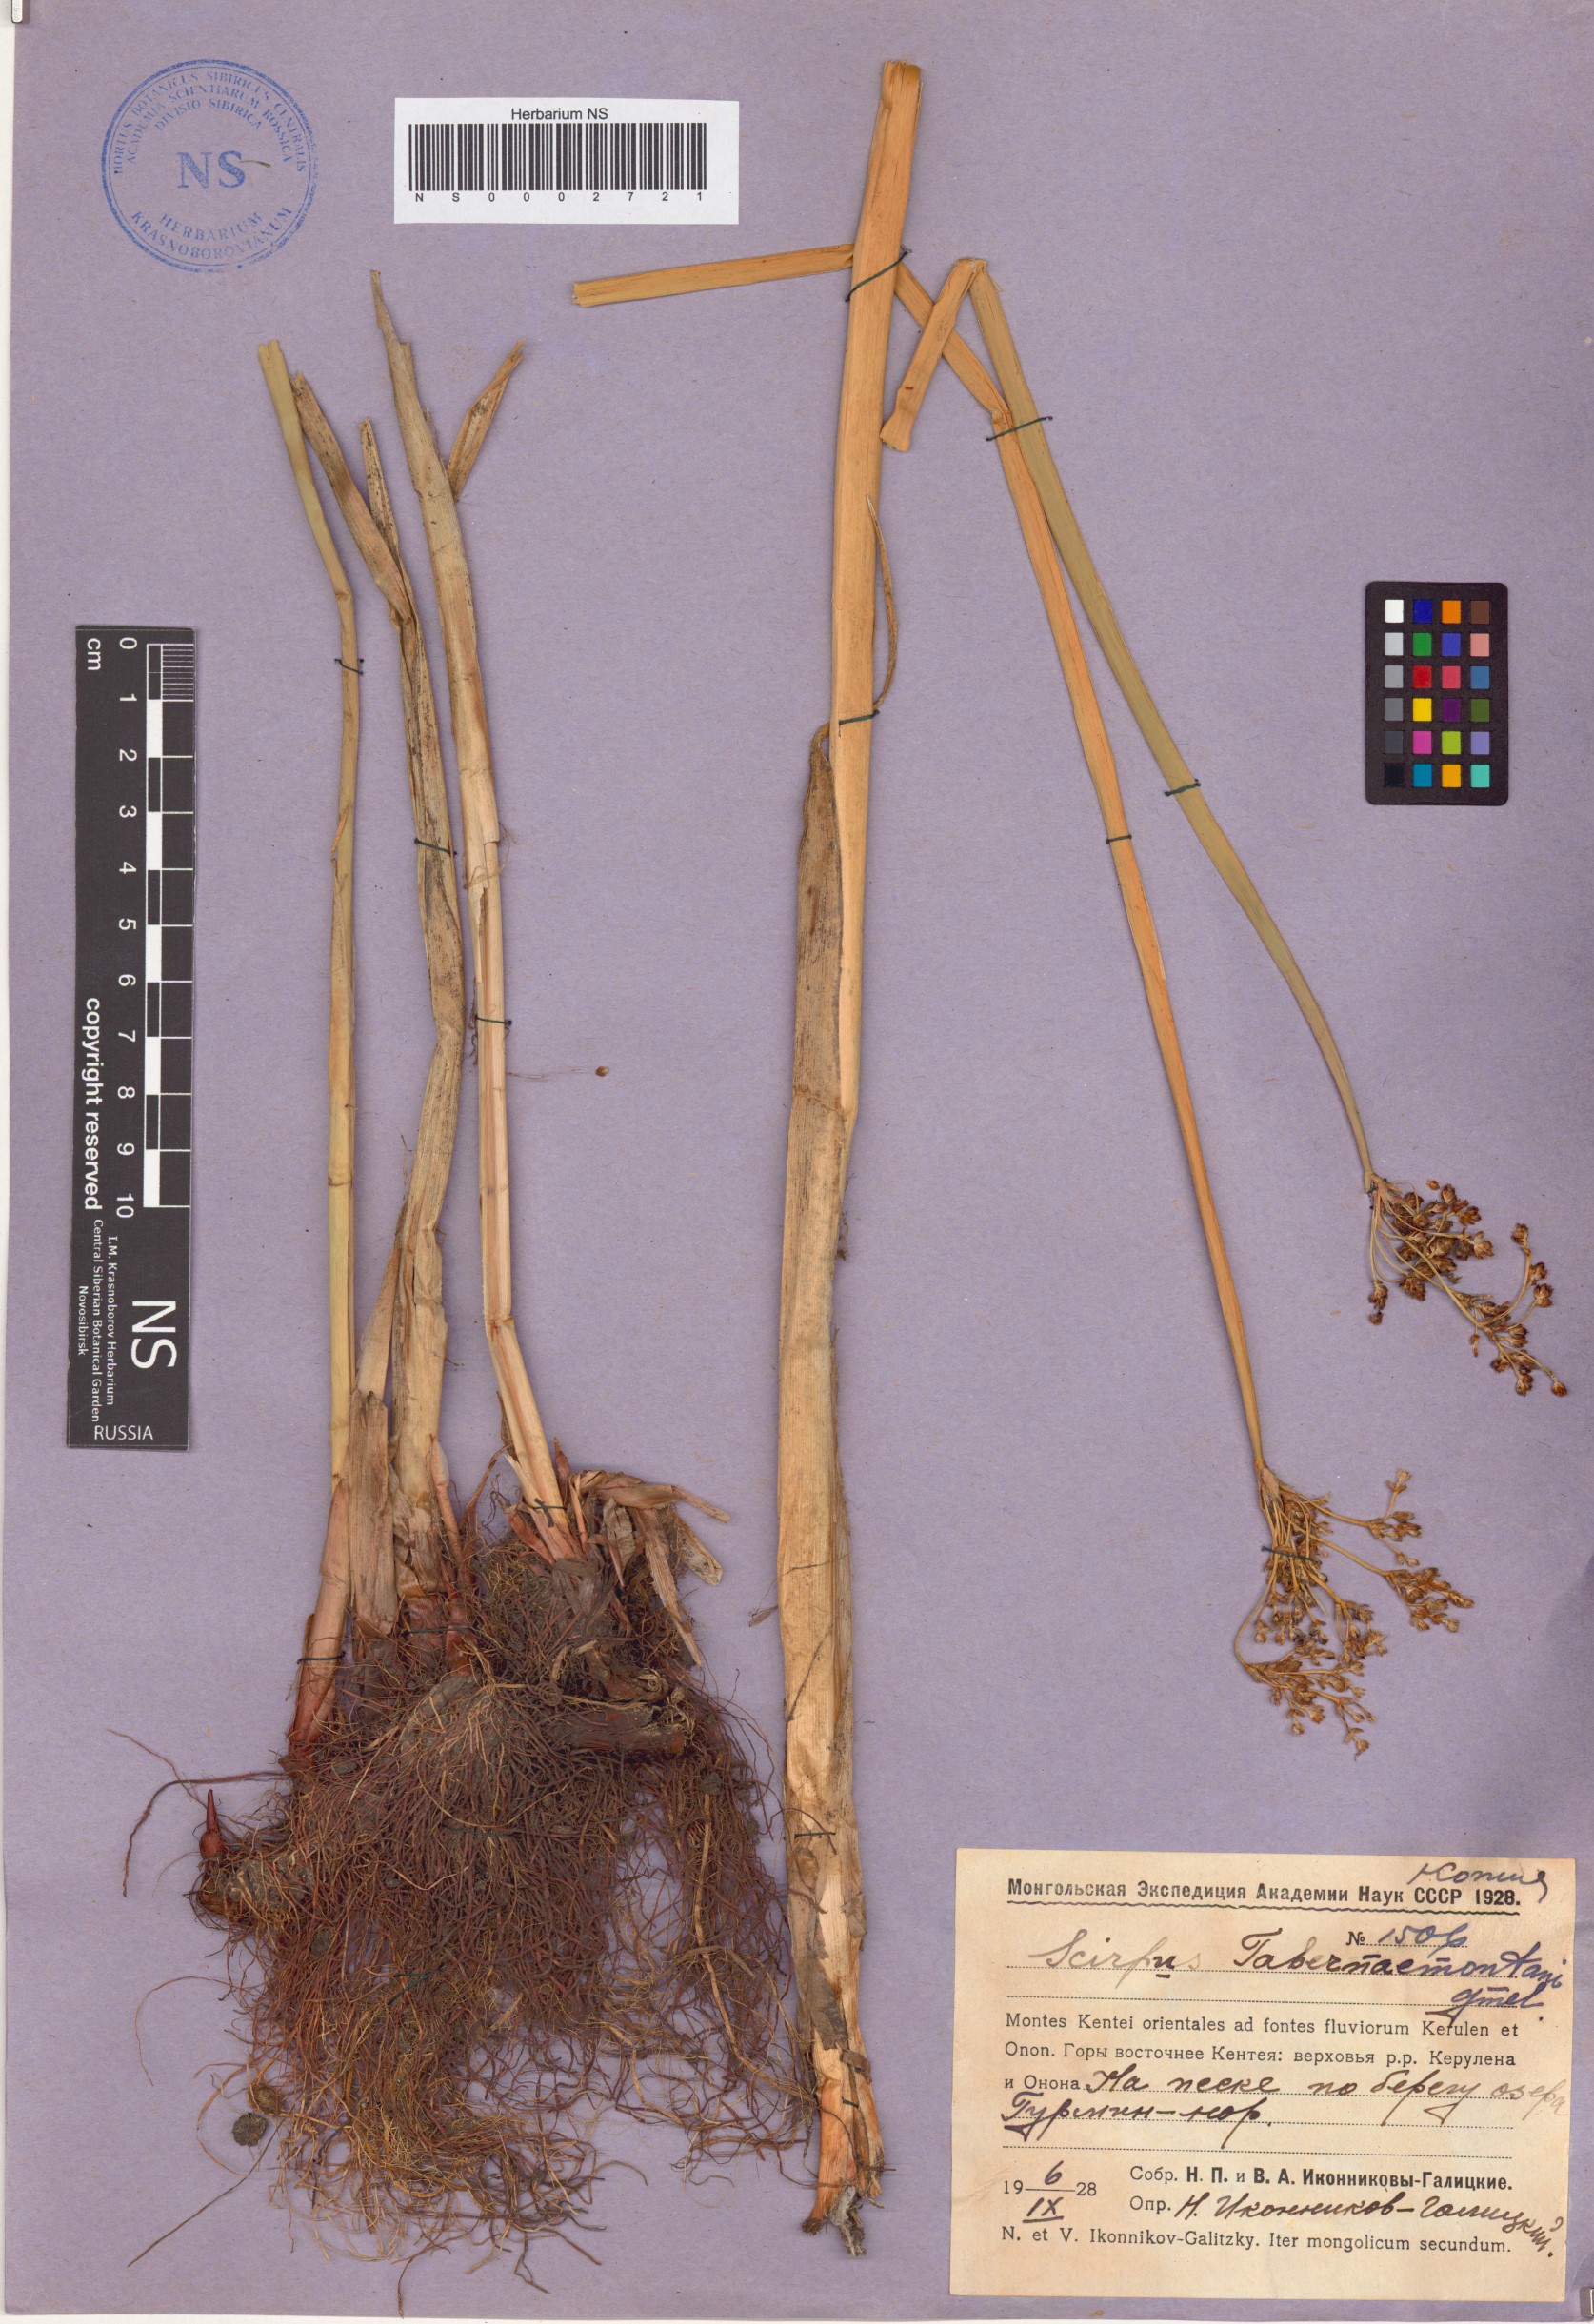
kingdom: Plantae
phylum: Tracheophyta
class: Liliopsida
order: Poales
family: Cyperaceae
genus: Schoenoplectus
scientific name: Schoenoplectus tabernaemontani
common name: Grey club-rush
